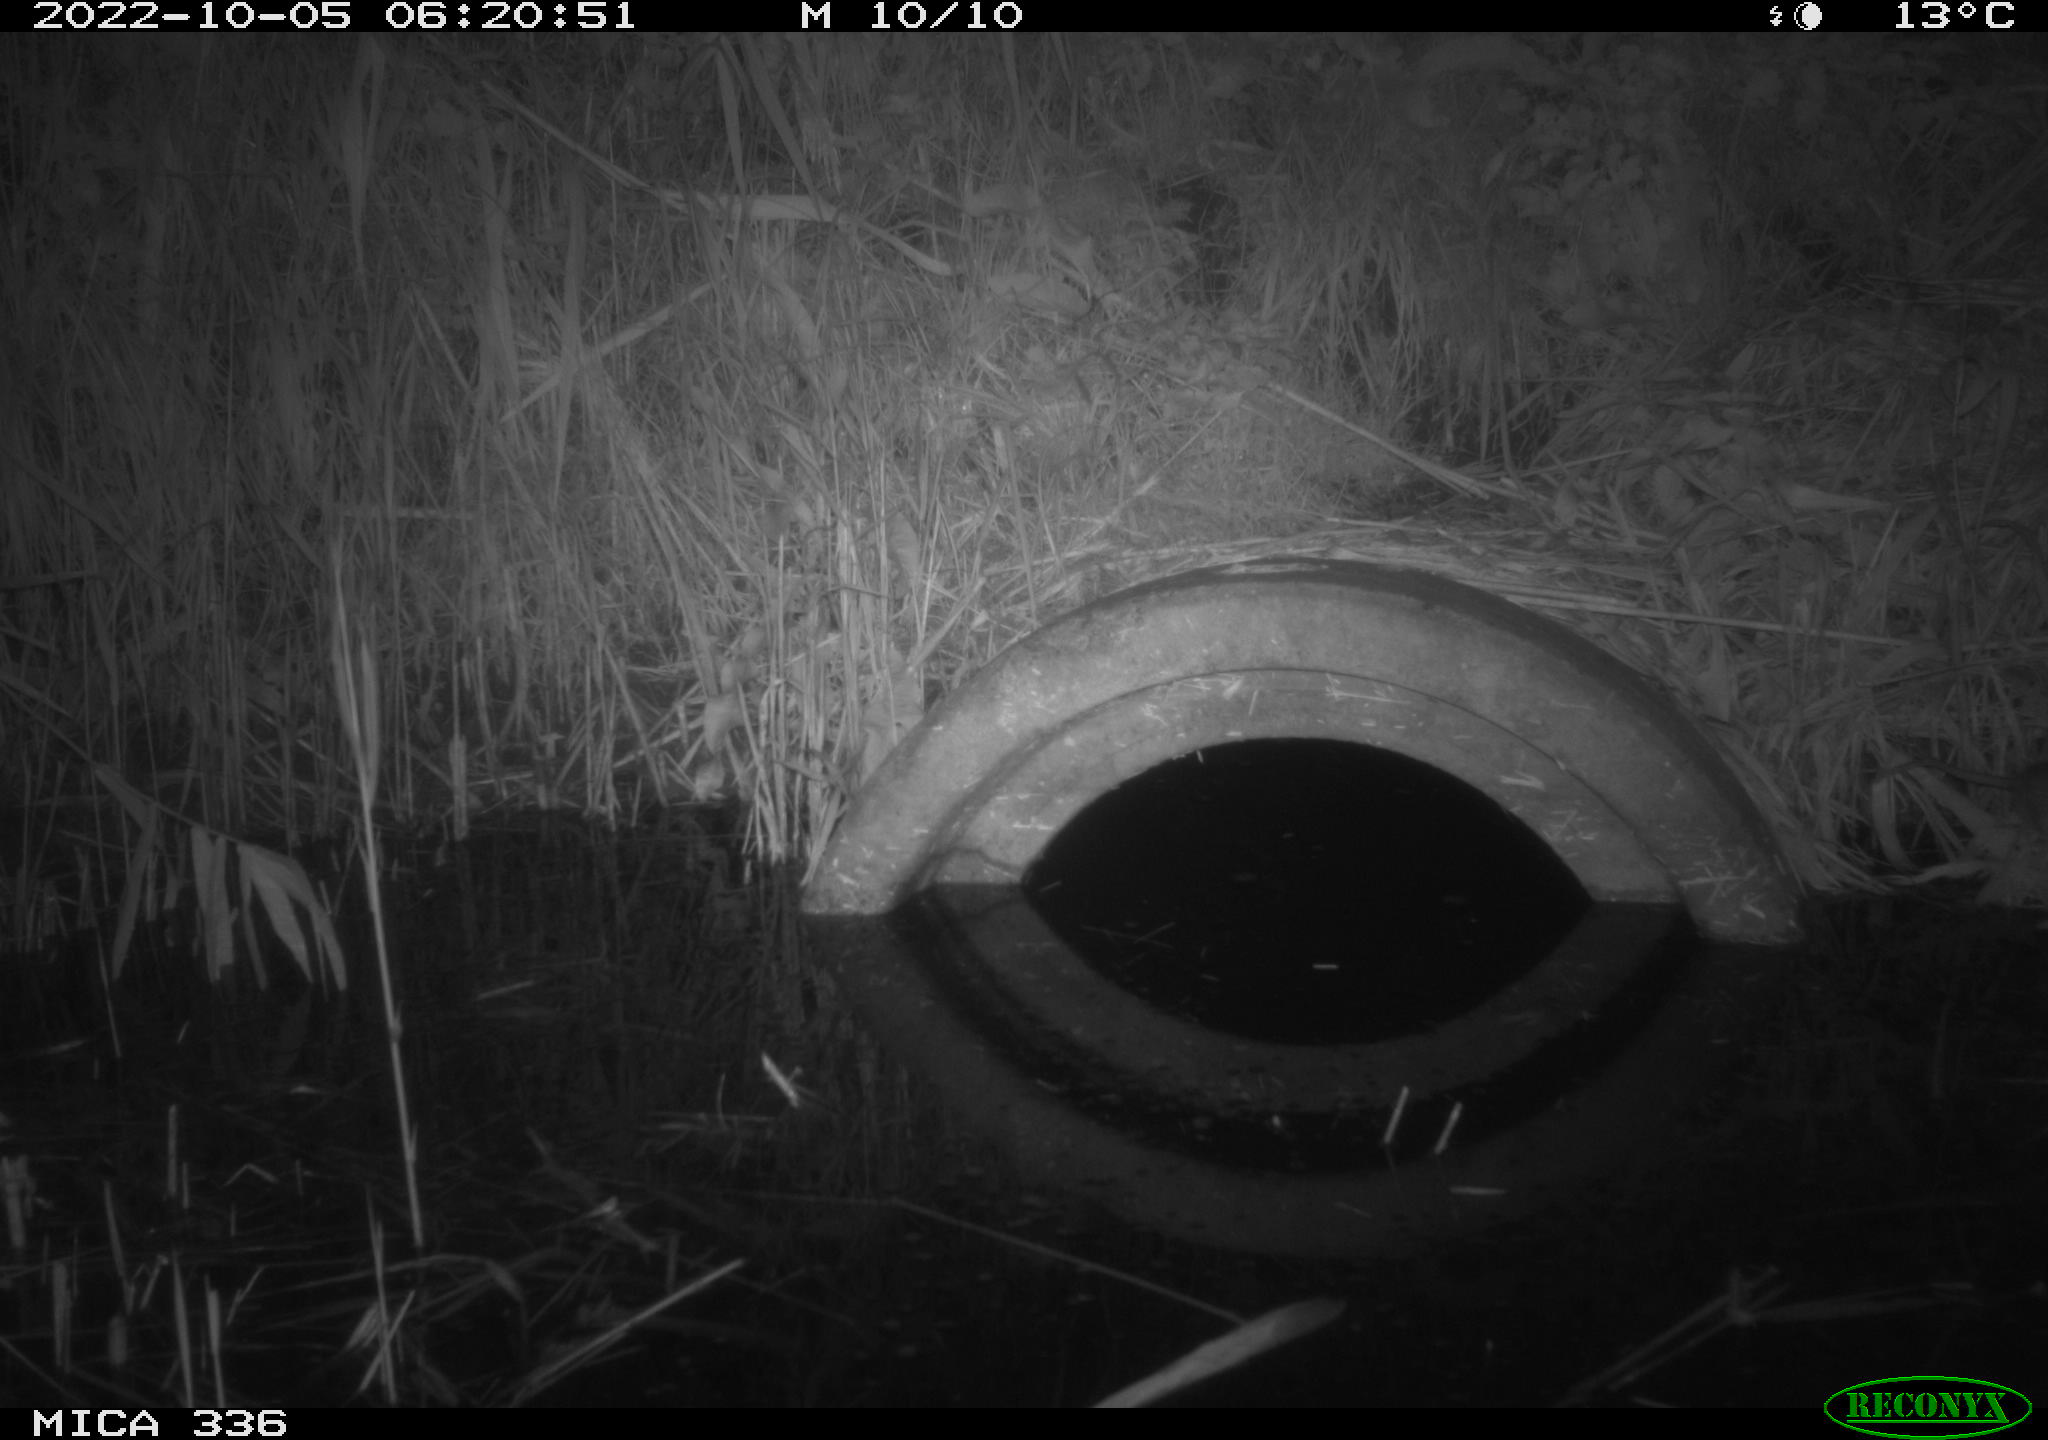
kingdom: Animalia
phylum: Chordata
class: Mammalia
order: Rodentia
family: Muridae
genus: Rattus
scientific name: Rattus norvegicus
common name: Brown rat
